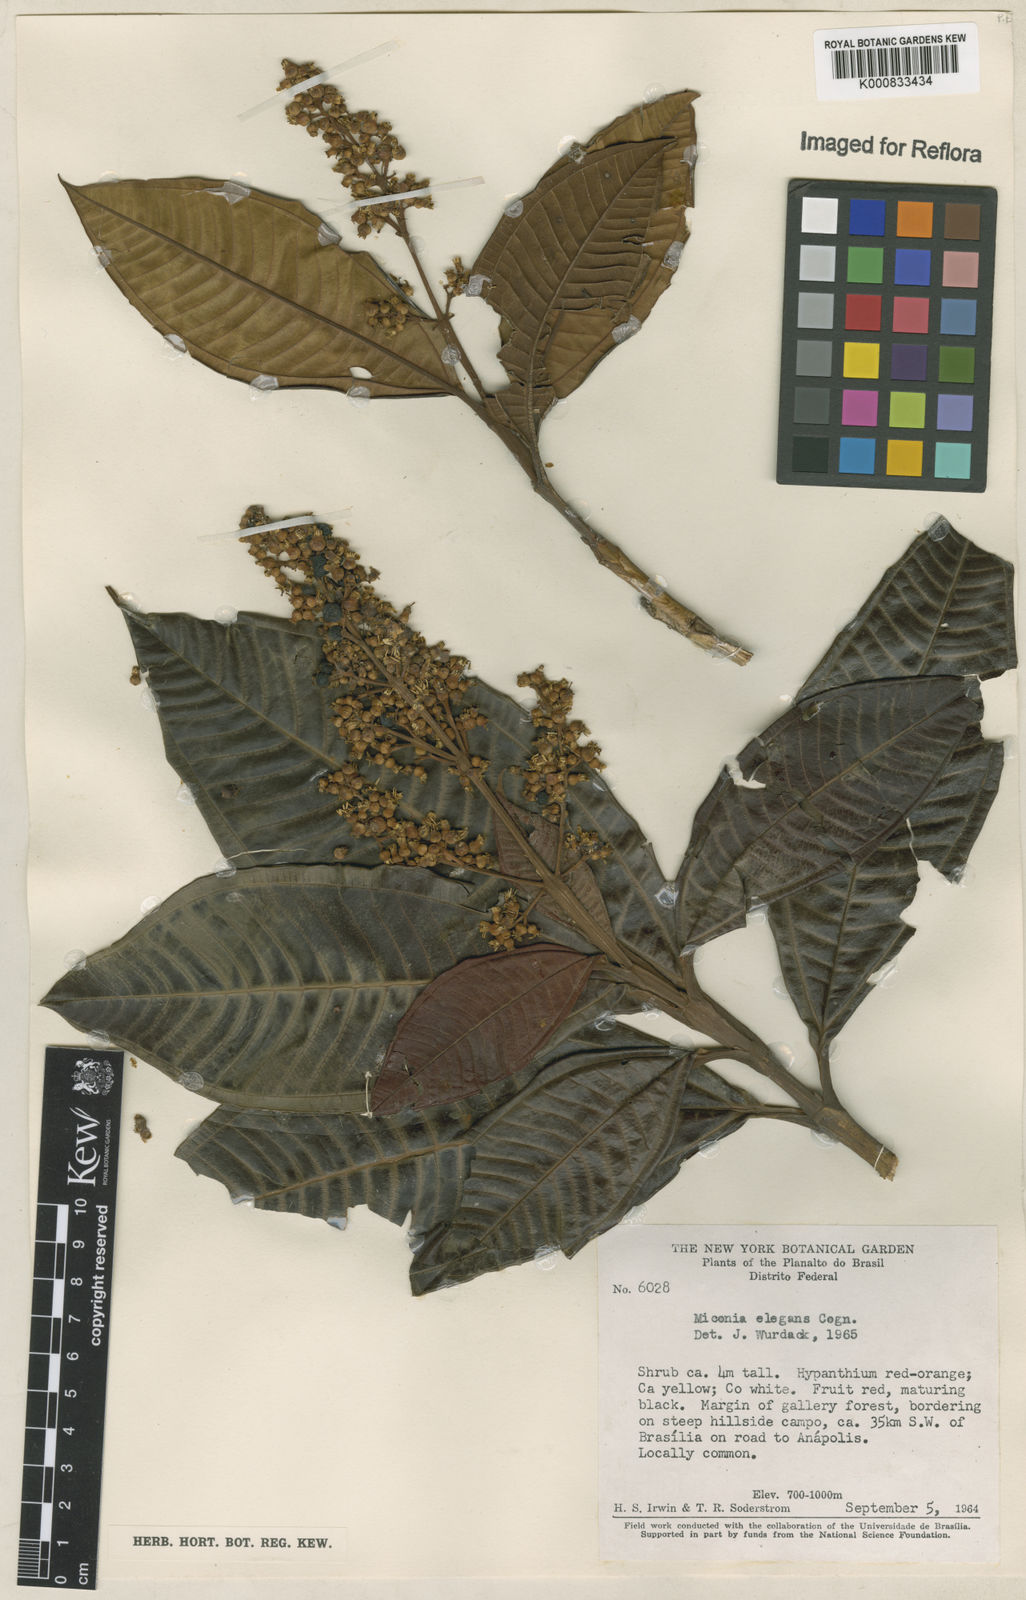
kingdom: Plantae
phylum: Tracheophyta
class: Magnoliopsida
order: Myrtales
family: Melastomataceae
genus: Miconia
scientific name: Miconia elegans
